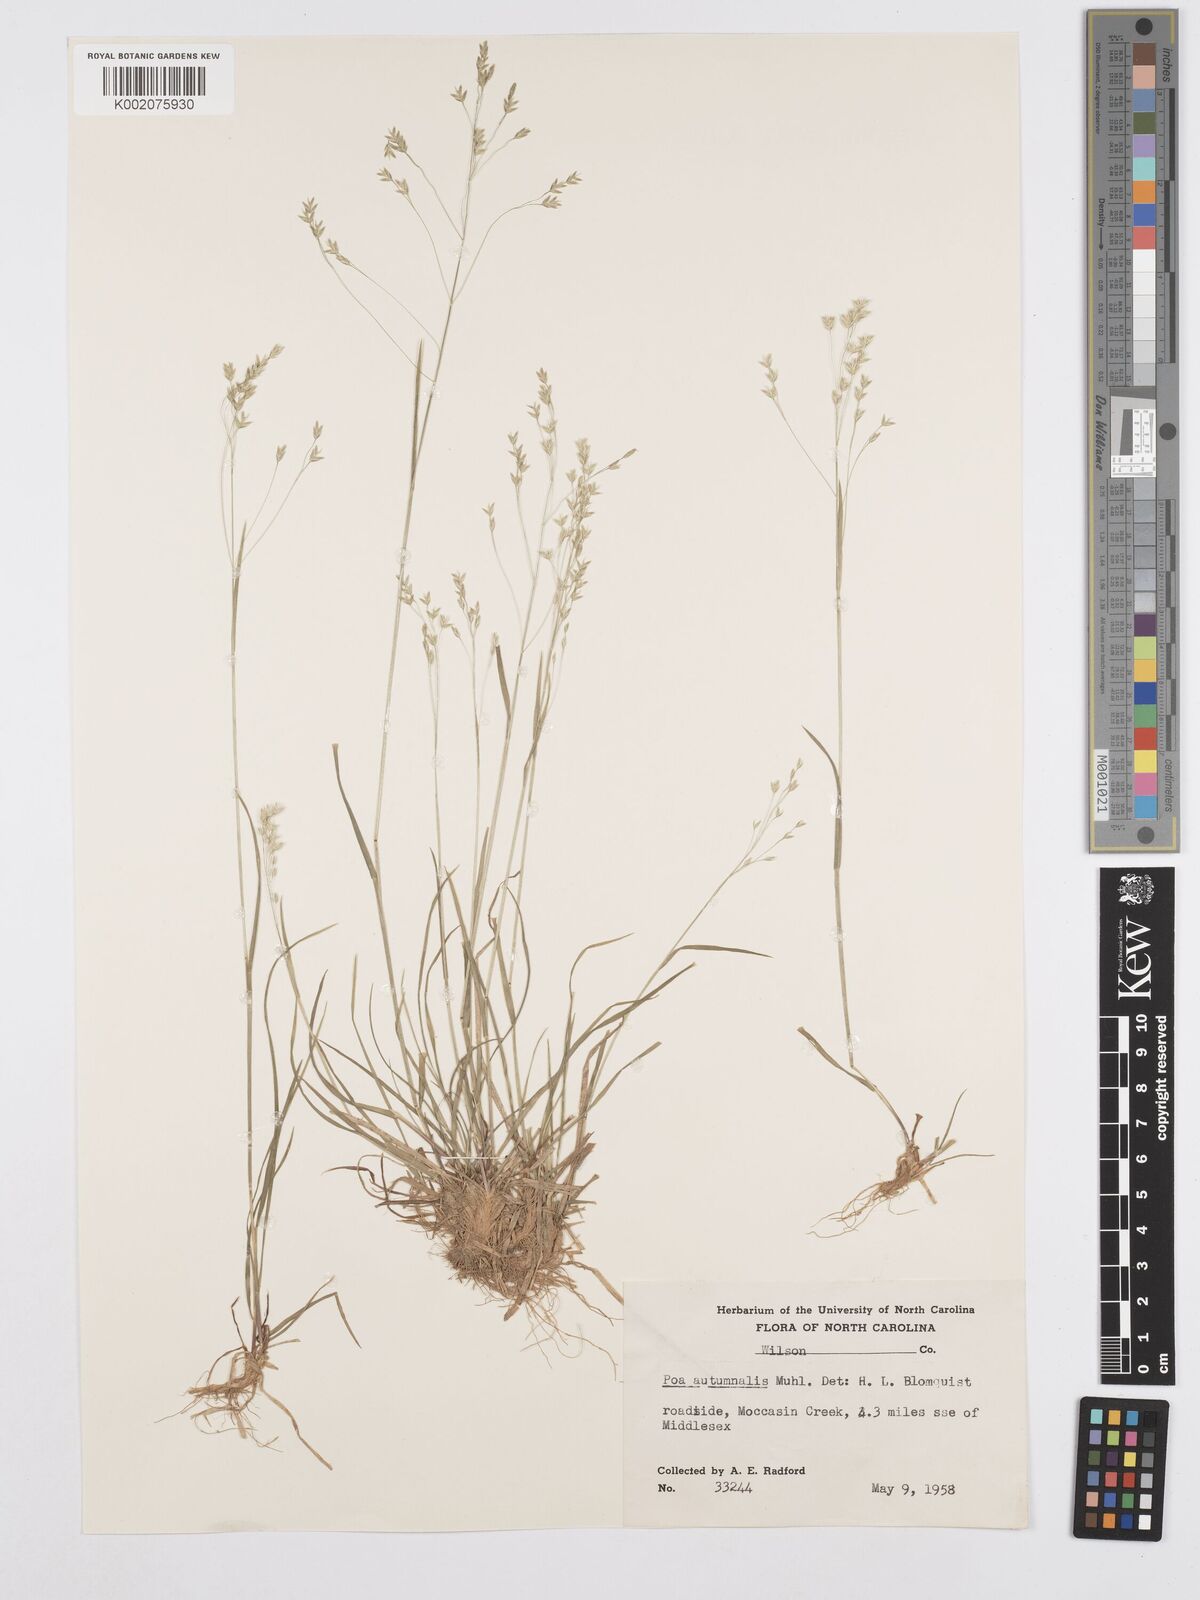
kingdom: Plantae
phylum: Tracheophyta
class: Liliopsida
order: Poales
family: Poaceae
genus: Poa
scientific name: Poa autumnalis
